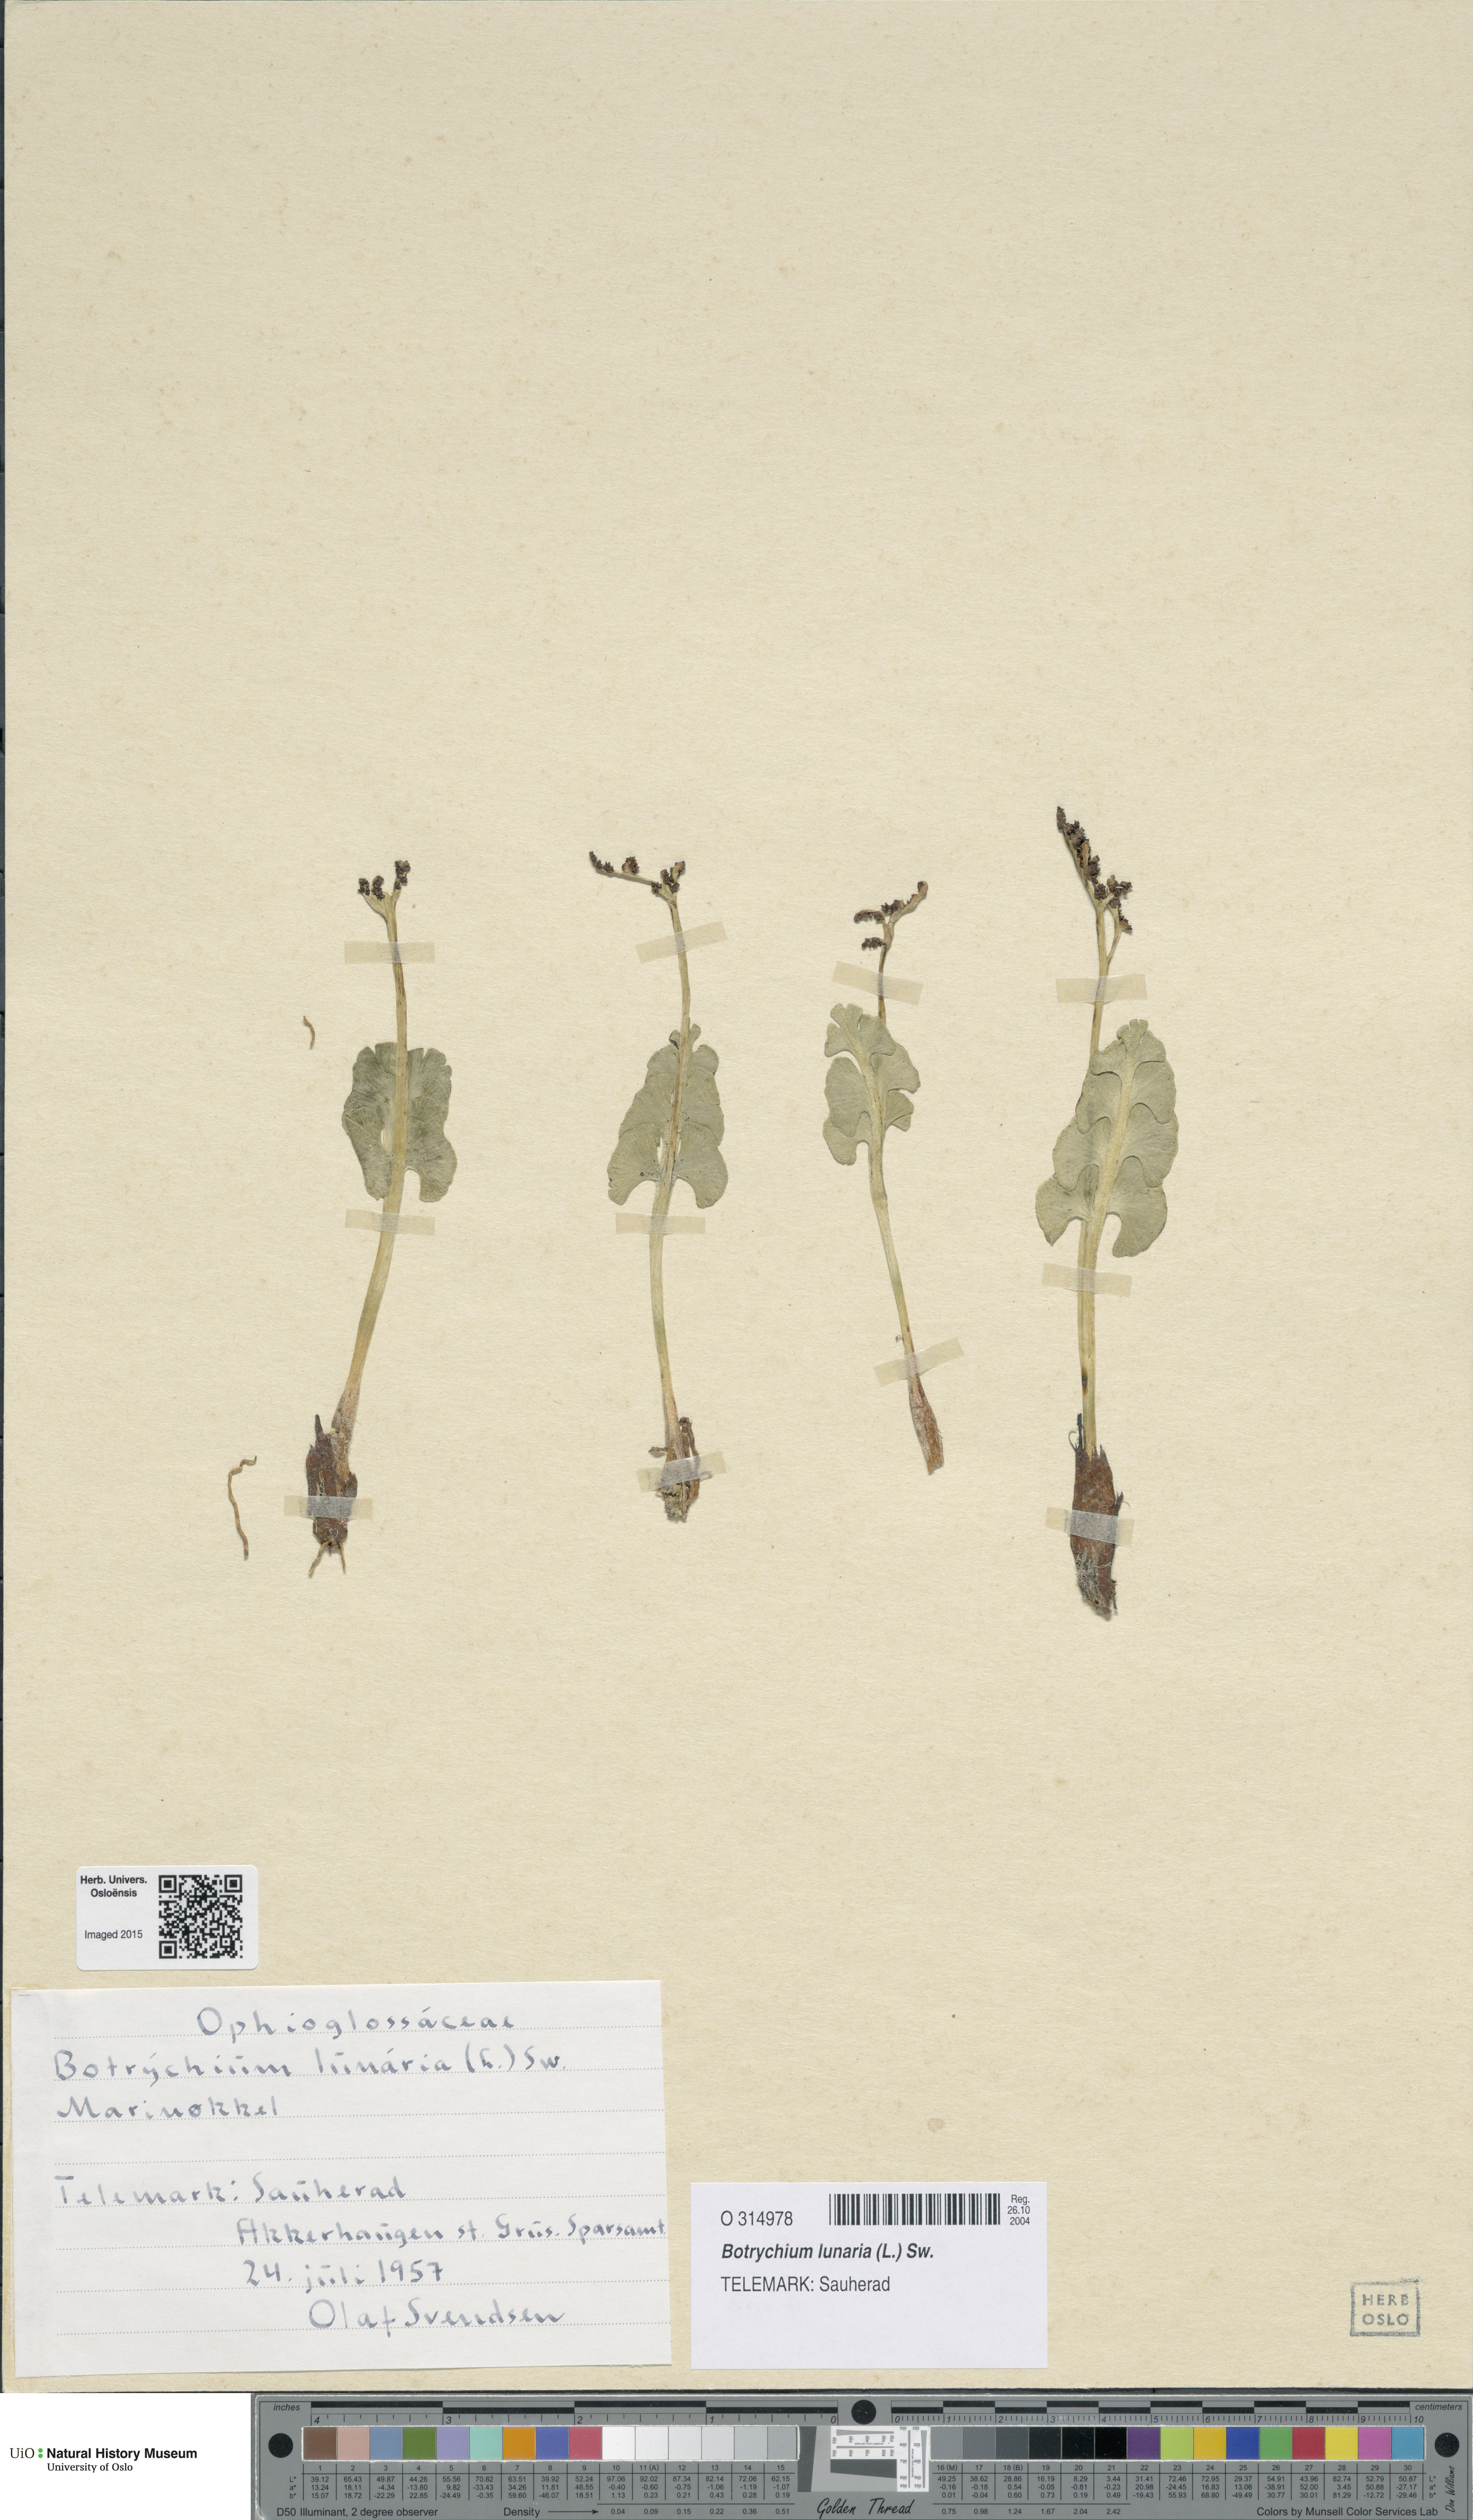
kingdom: Plantae
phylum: Tracheophyta
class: Polypodiopsida
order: Ophioglossales
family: Ophioglossaceae
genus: Botrychium
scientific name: Botrychium lunaria
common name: Moonwort
